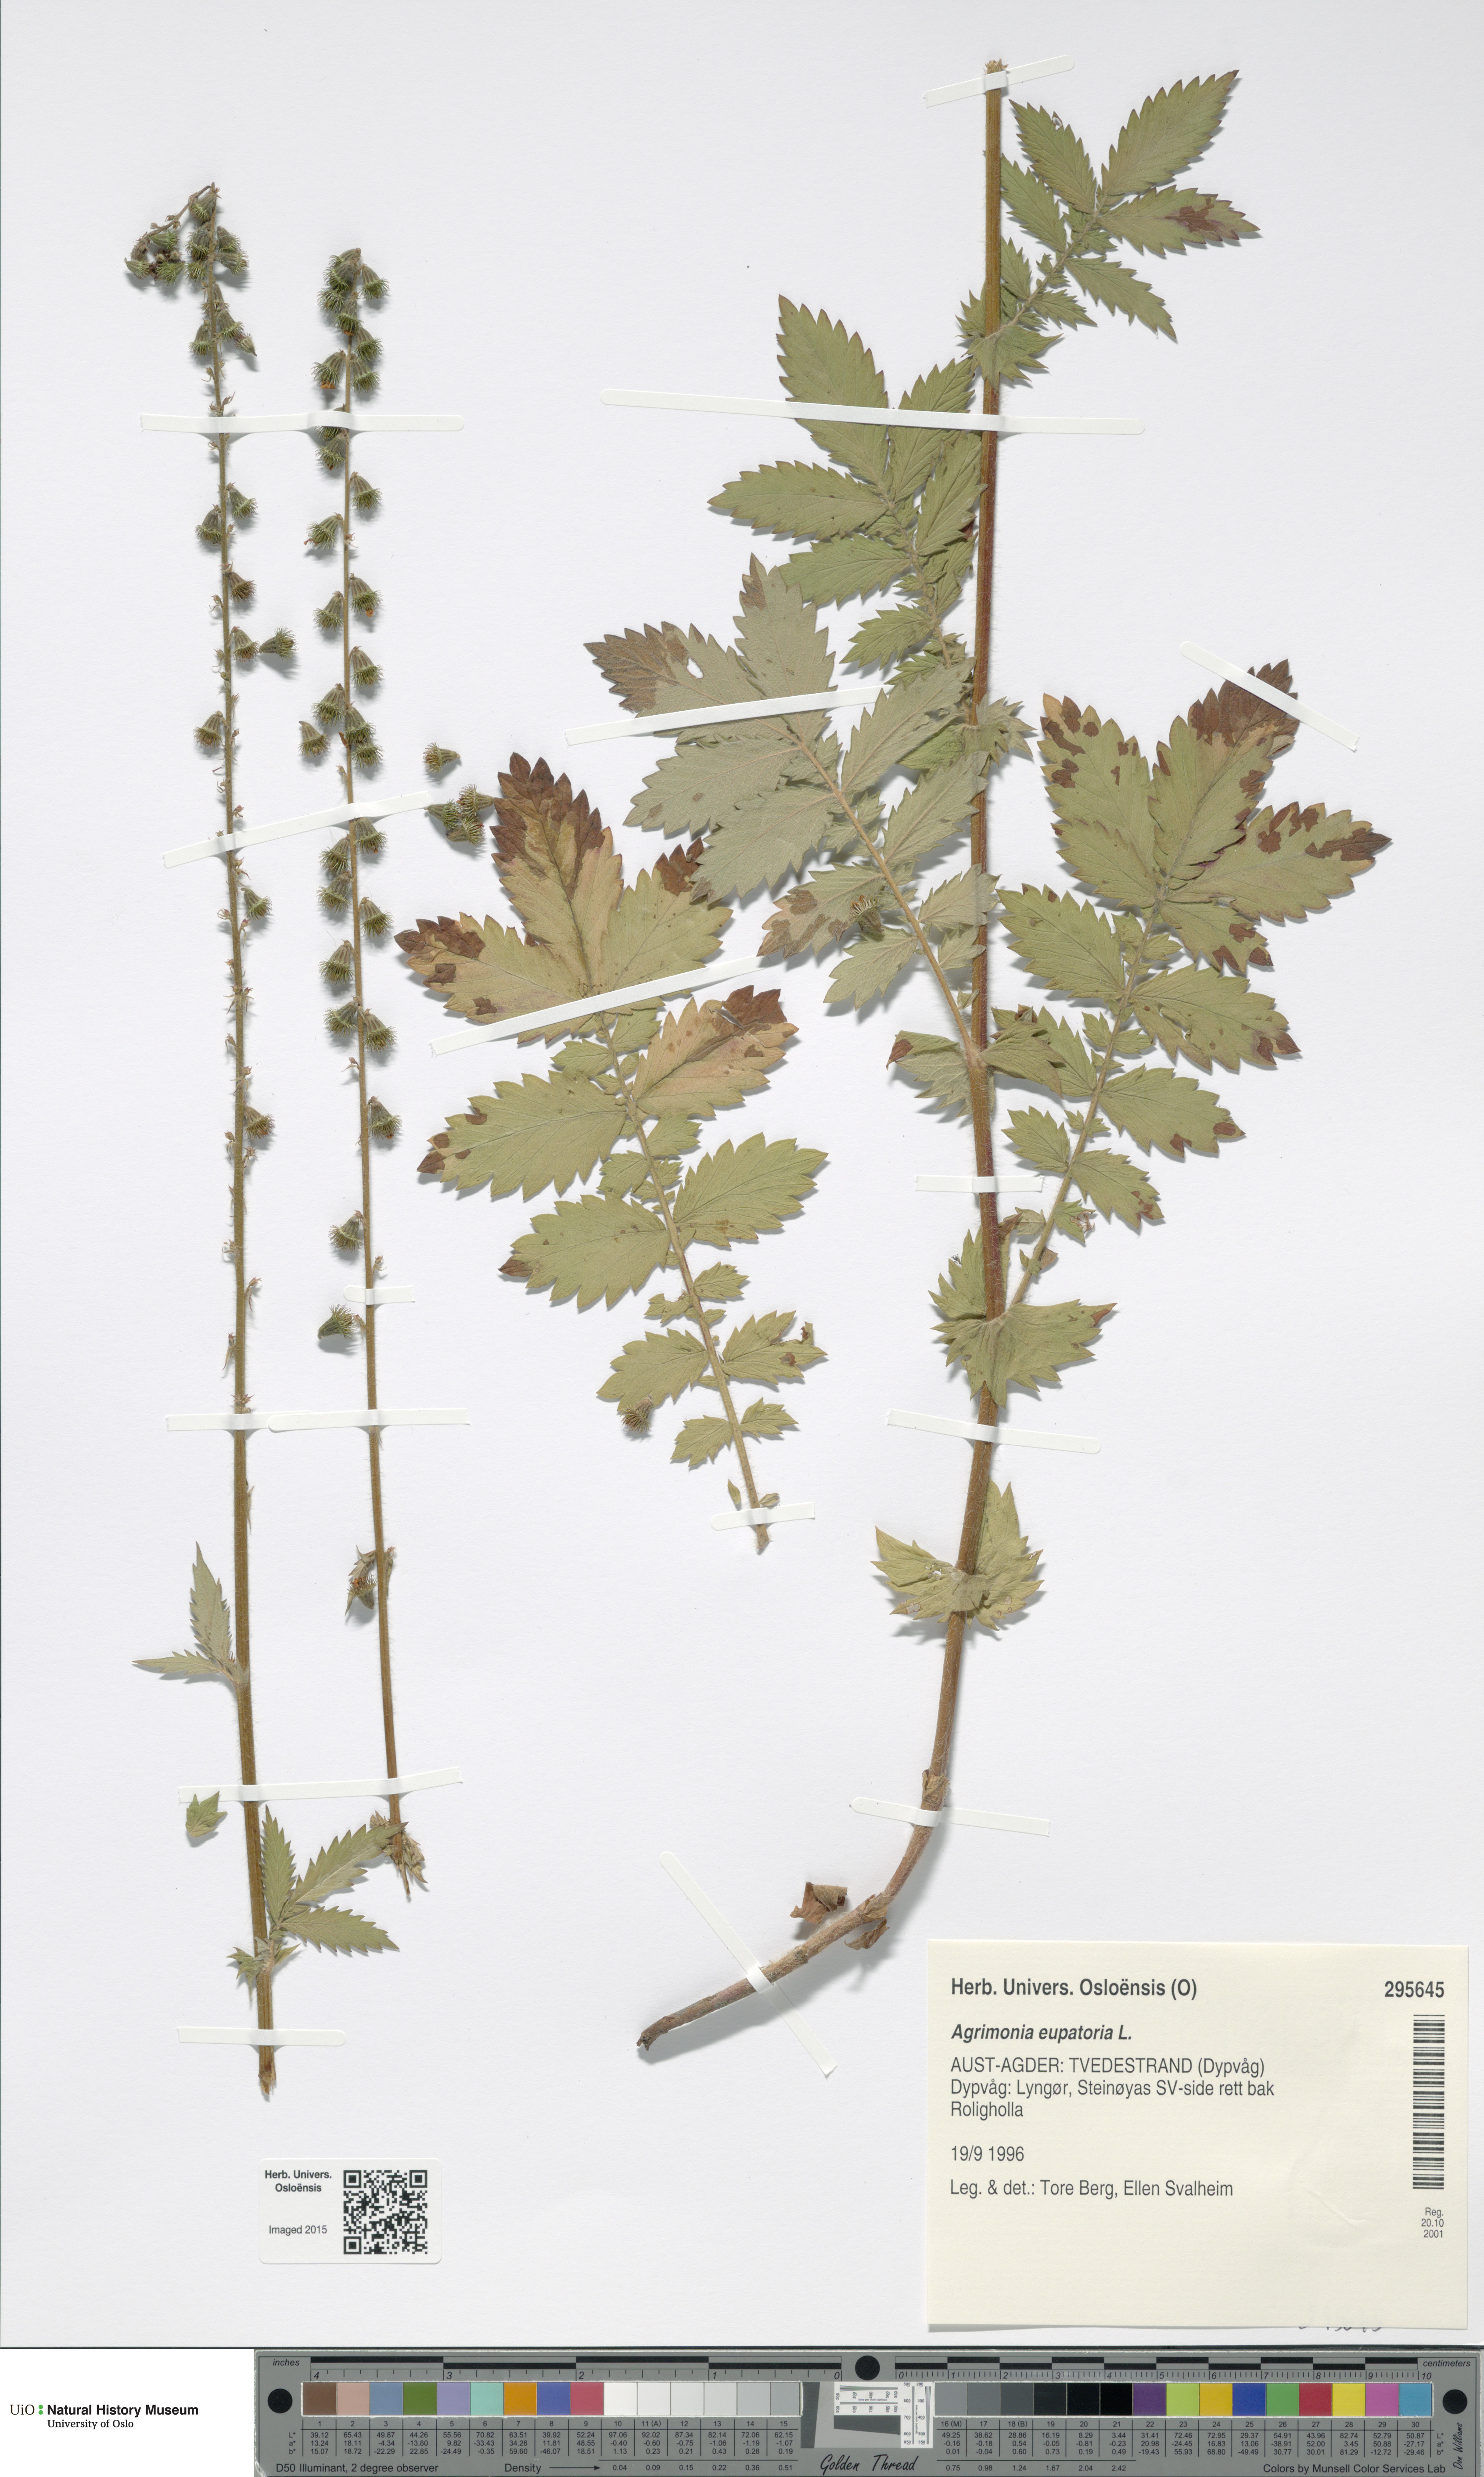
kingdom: Plantae
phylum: Tracheophyta
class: Magnoliopsida
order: Rosales
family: Rosaceae
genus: Agrimonia
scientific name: Agrimonia eupatoria
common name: Agrimony
